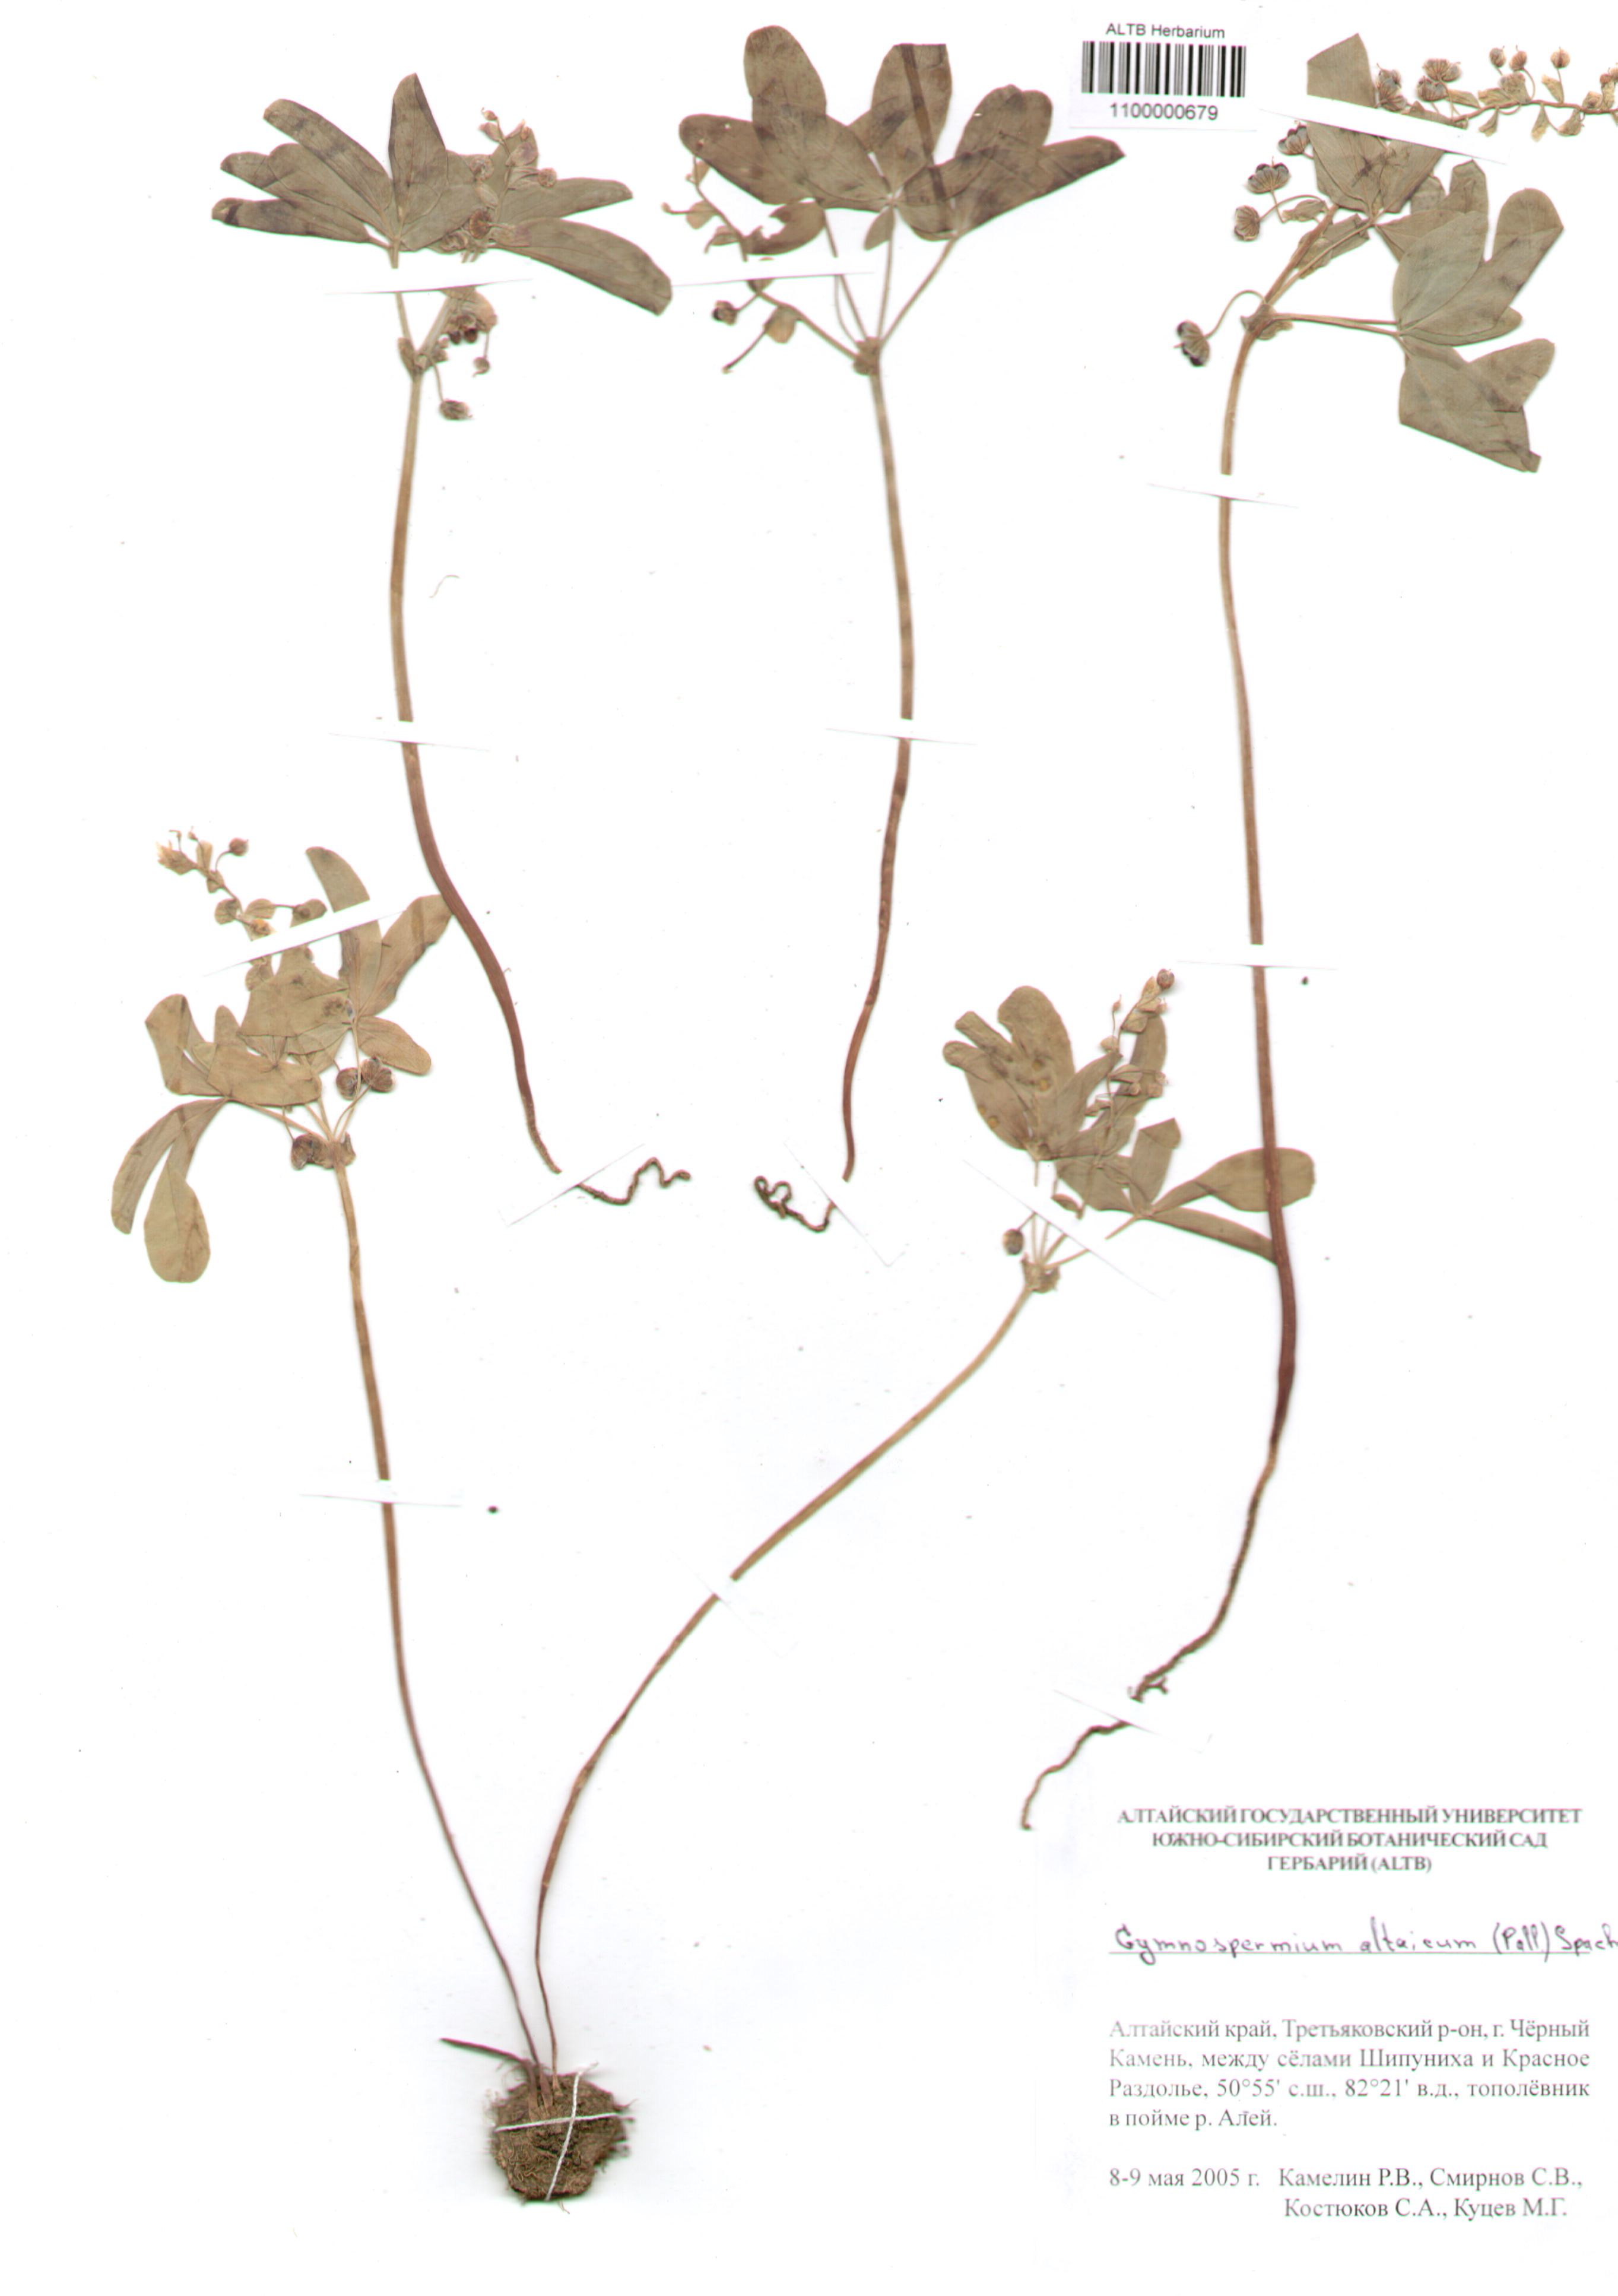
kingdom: Plantae
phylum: Tracheophyta
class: Magnoliopsida
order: Ranunculales
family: Berberidaceae
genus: Gymnospermium
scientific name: Gymnospermium altaicum
